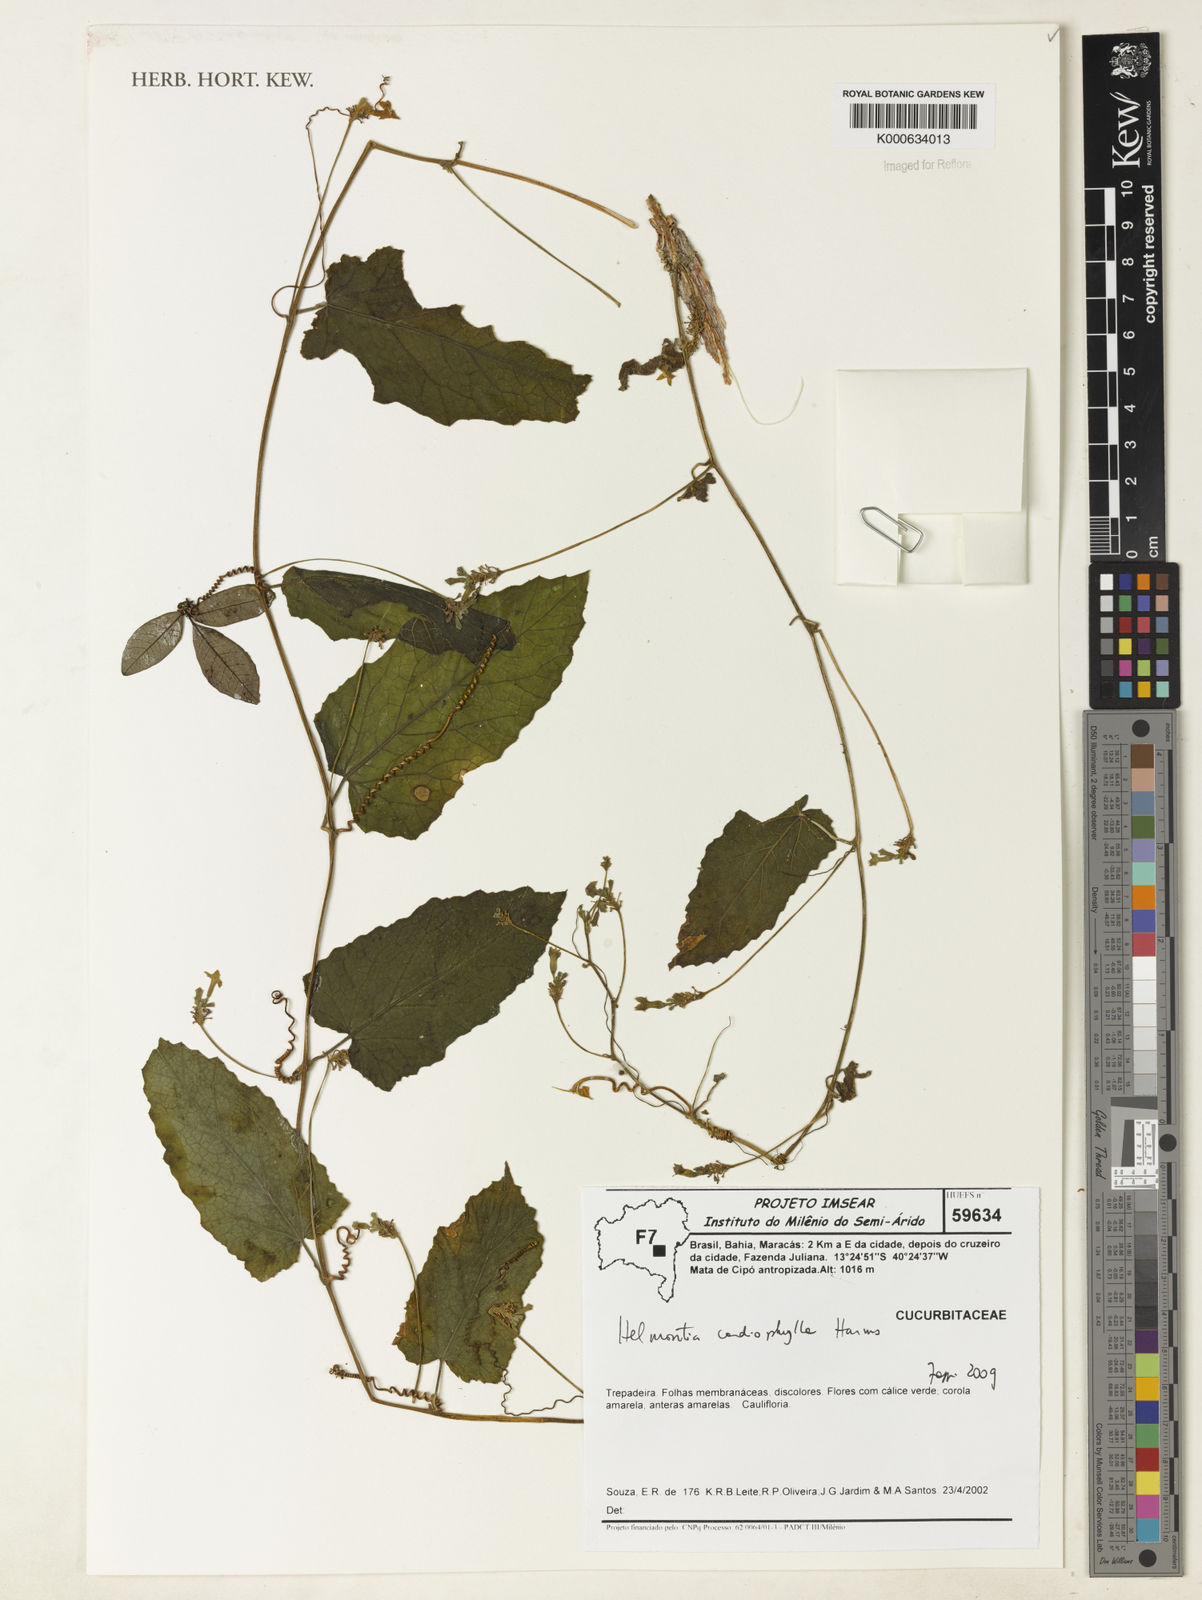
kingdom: Plantae
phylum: Tracheophyta
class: Magnoliopsida
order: Cucurbitales
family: Cucurbitaceae
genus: Helmontia
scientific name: Helmontia cardiophylla
